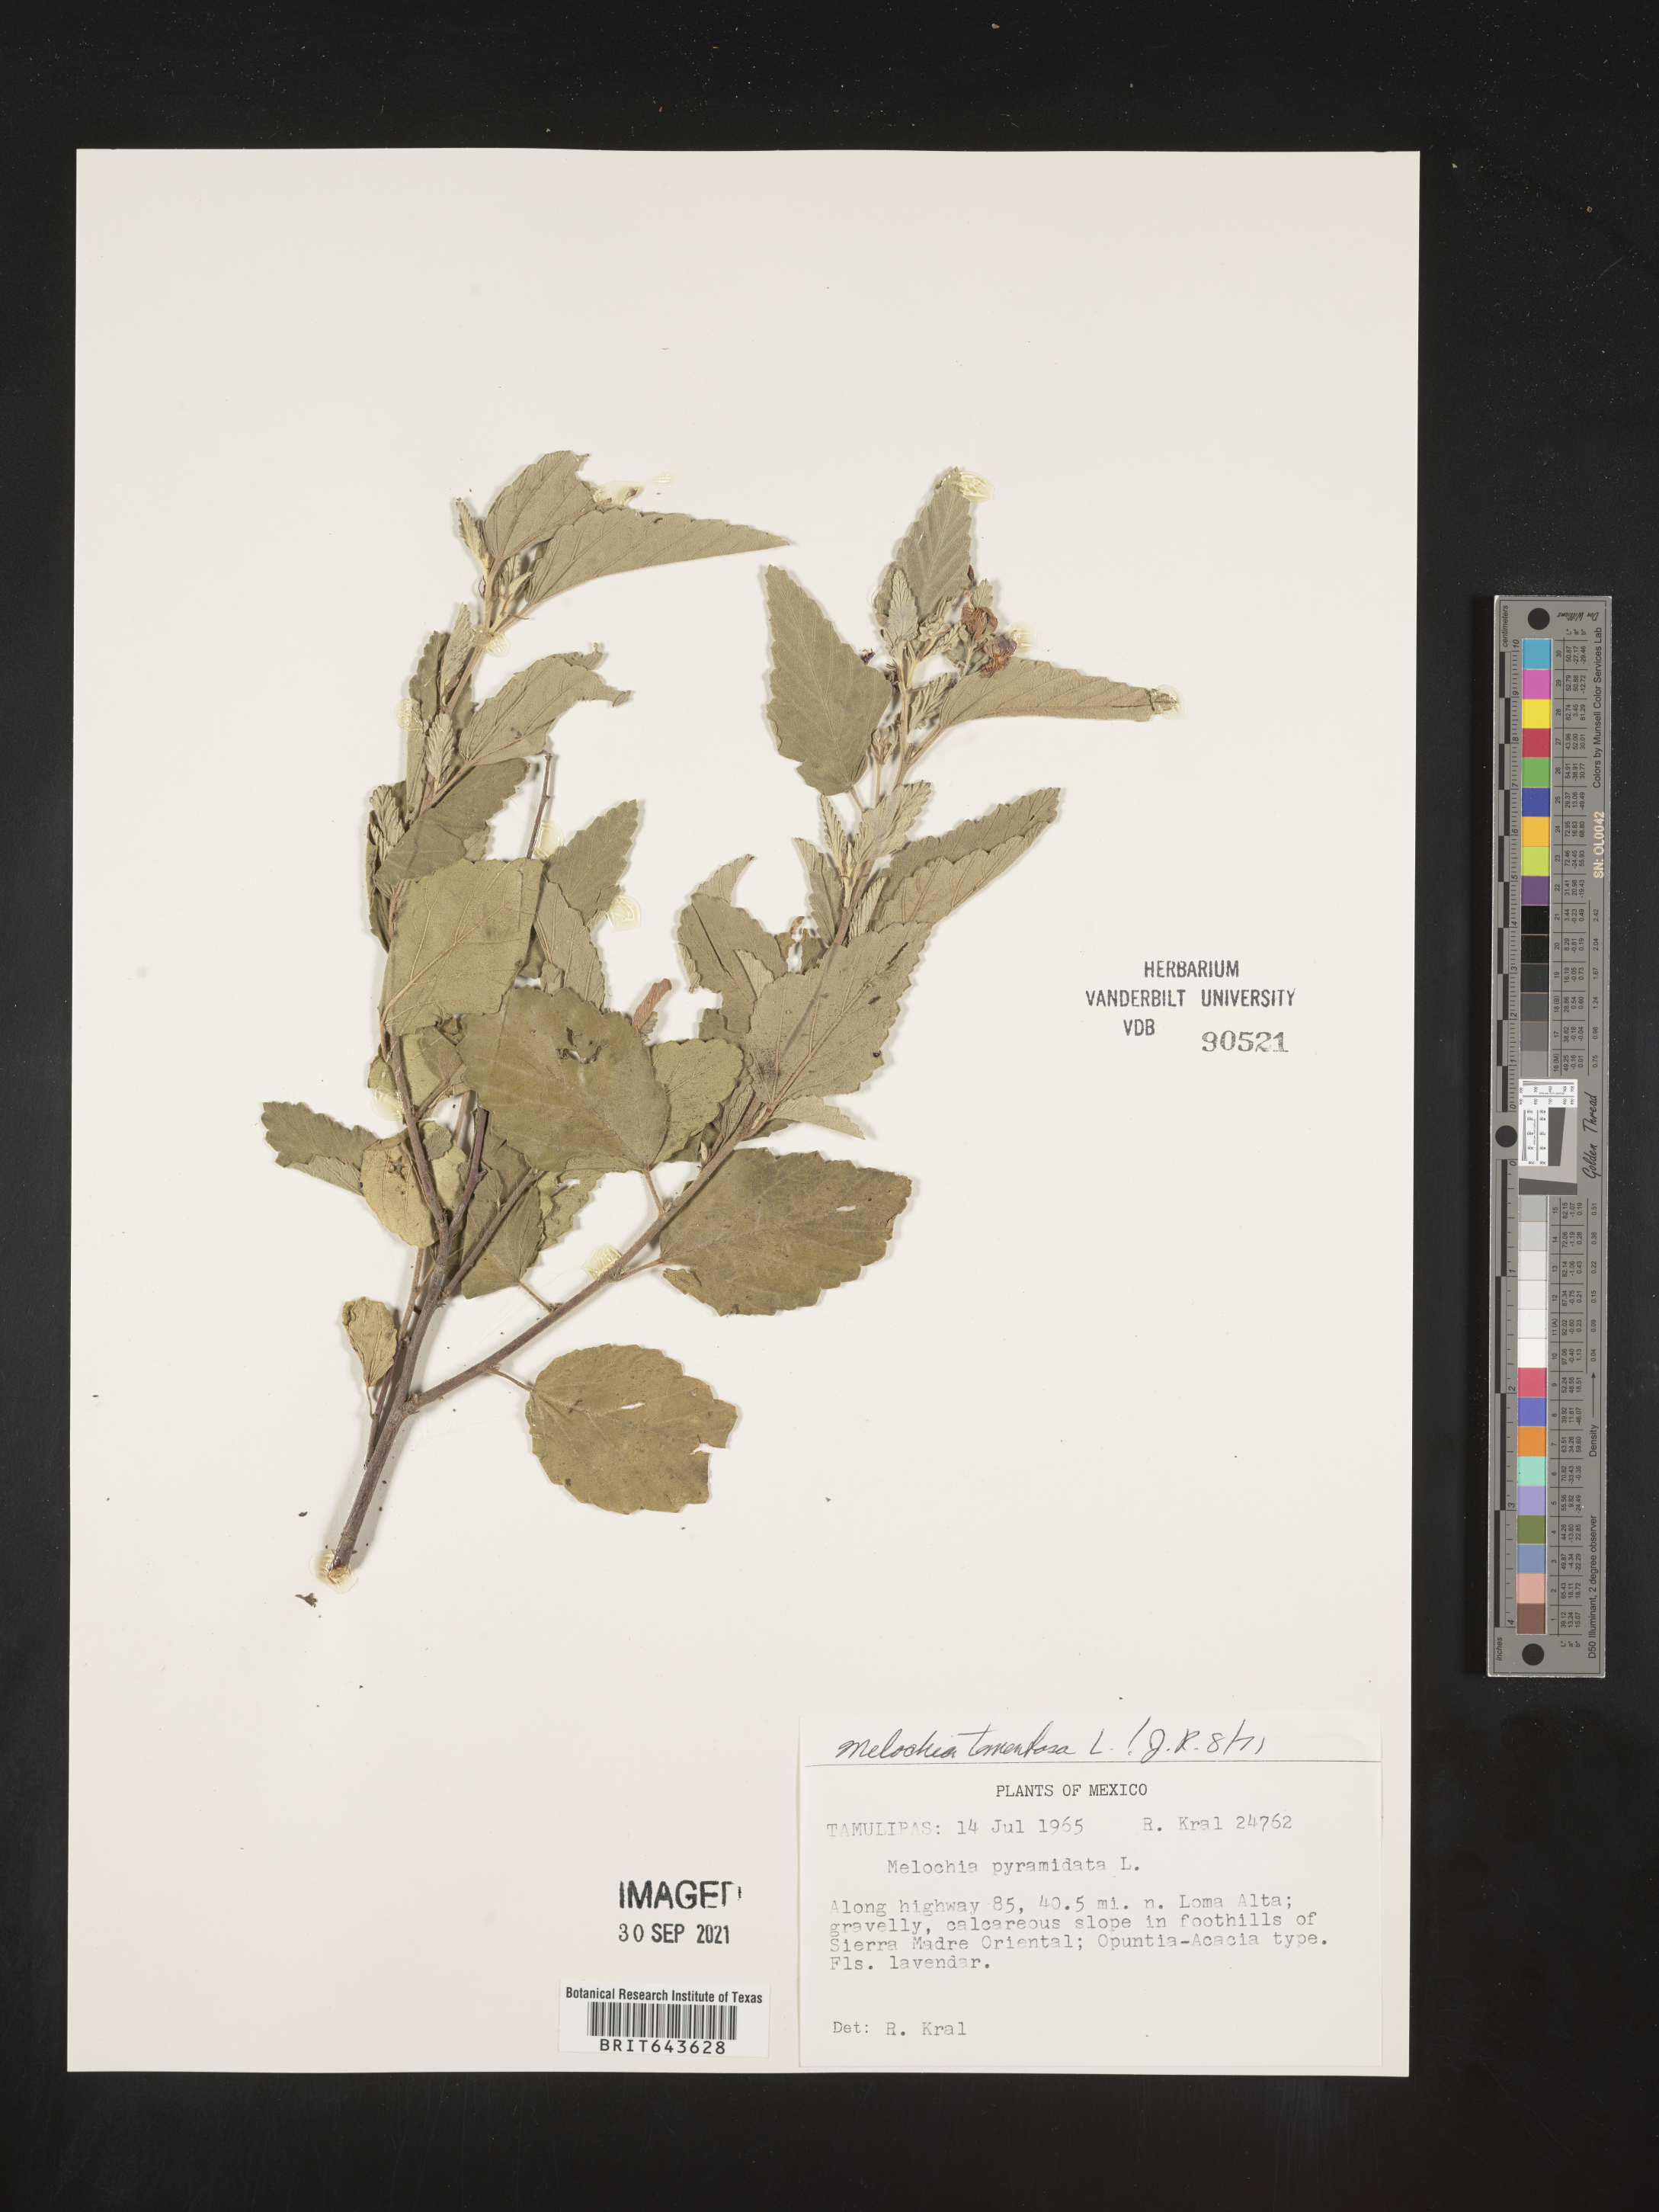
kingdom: Plantae
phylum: Tracheophyta
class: Magnoliopsida
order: Malvales
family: Malvaceae
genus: Melochia
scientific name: Melochia
